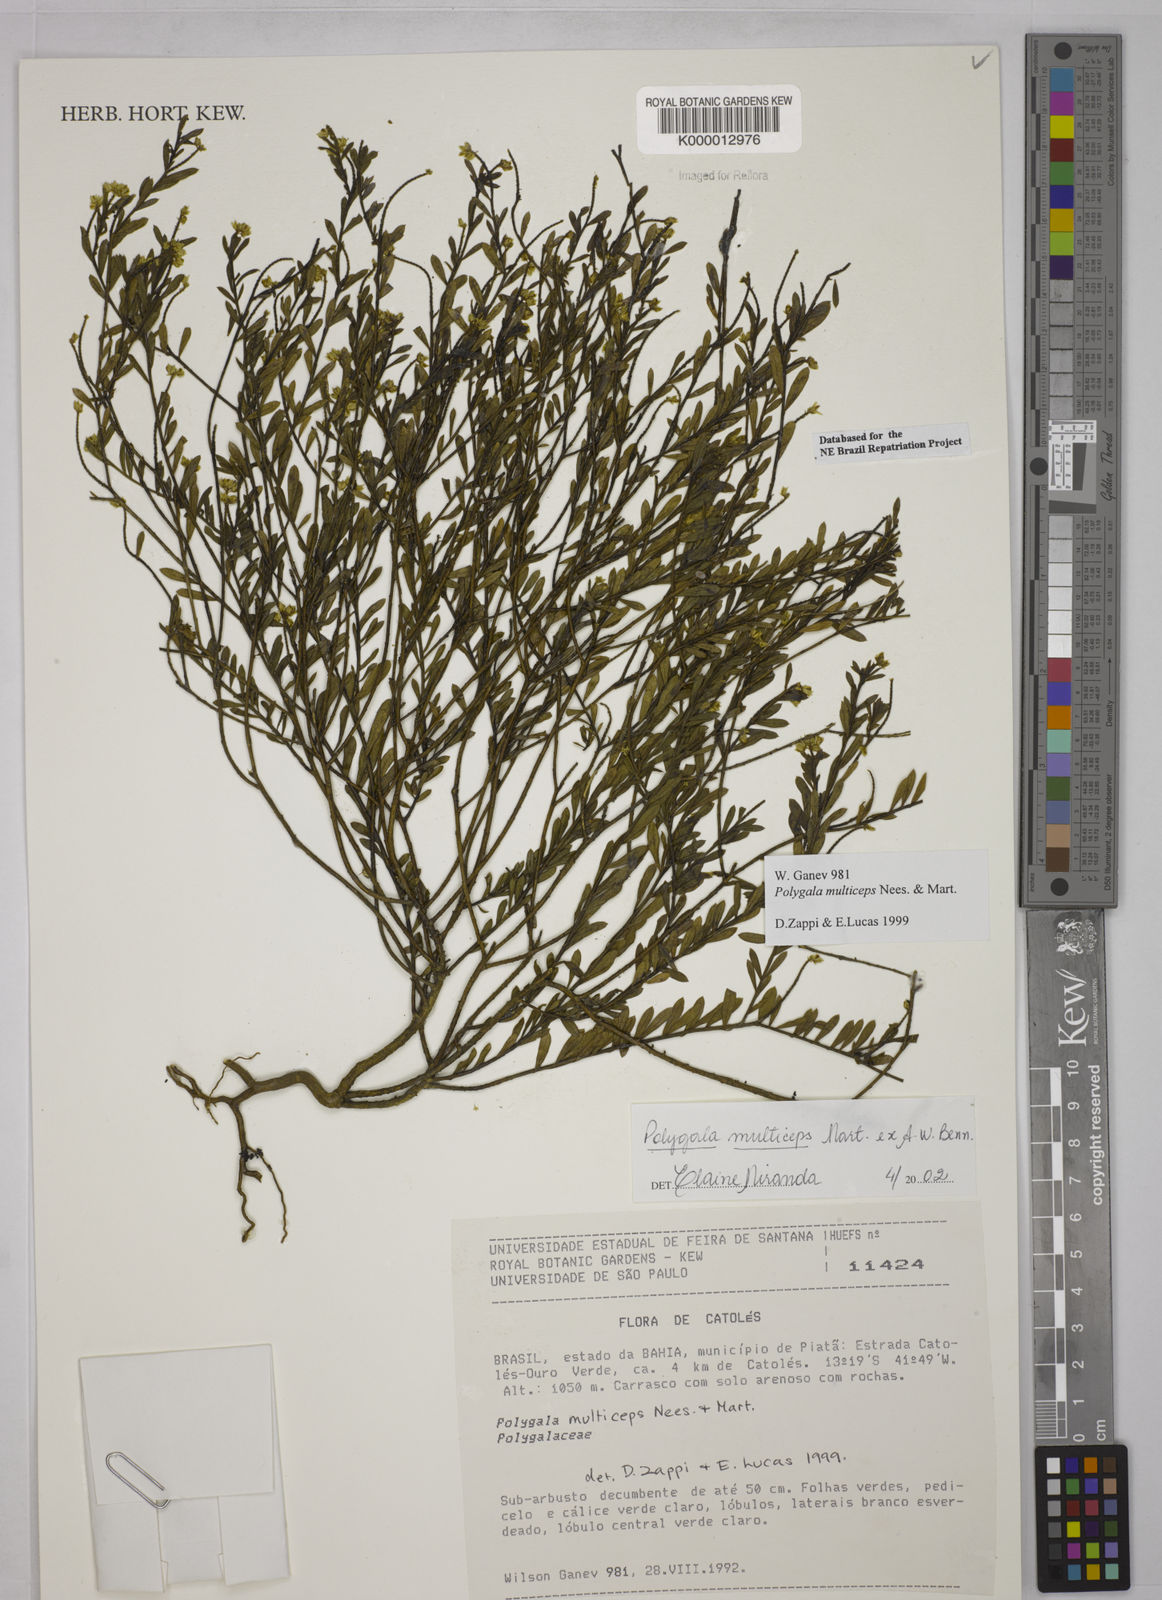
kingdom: Plantae
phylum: Tracheophyta
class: Magnoliopsida
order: Fabales
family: Polygalaceae
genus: Polygala
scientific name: Polygala multiceps
